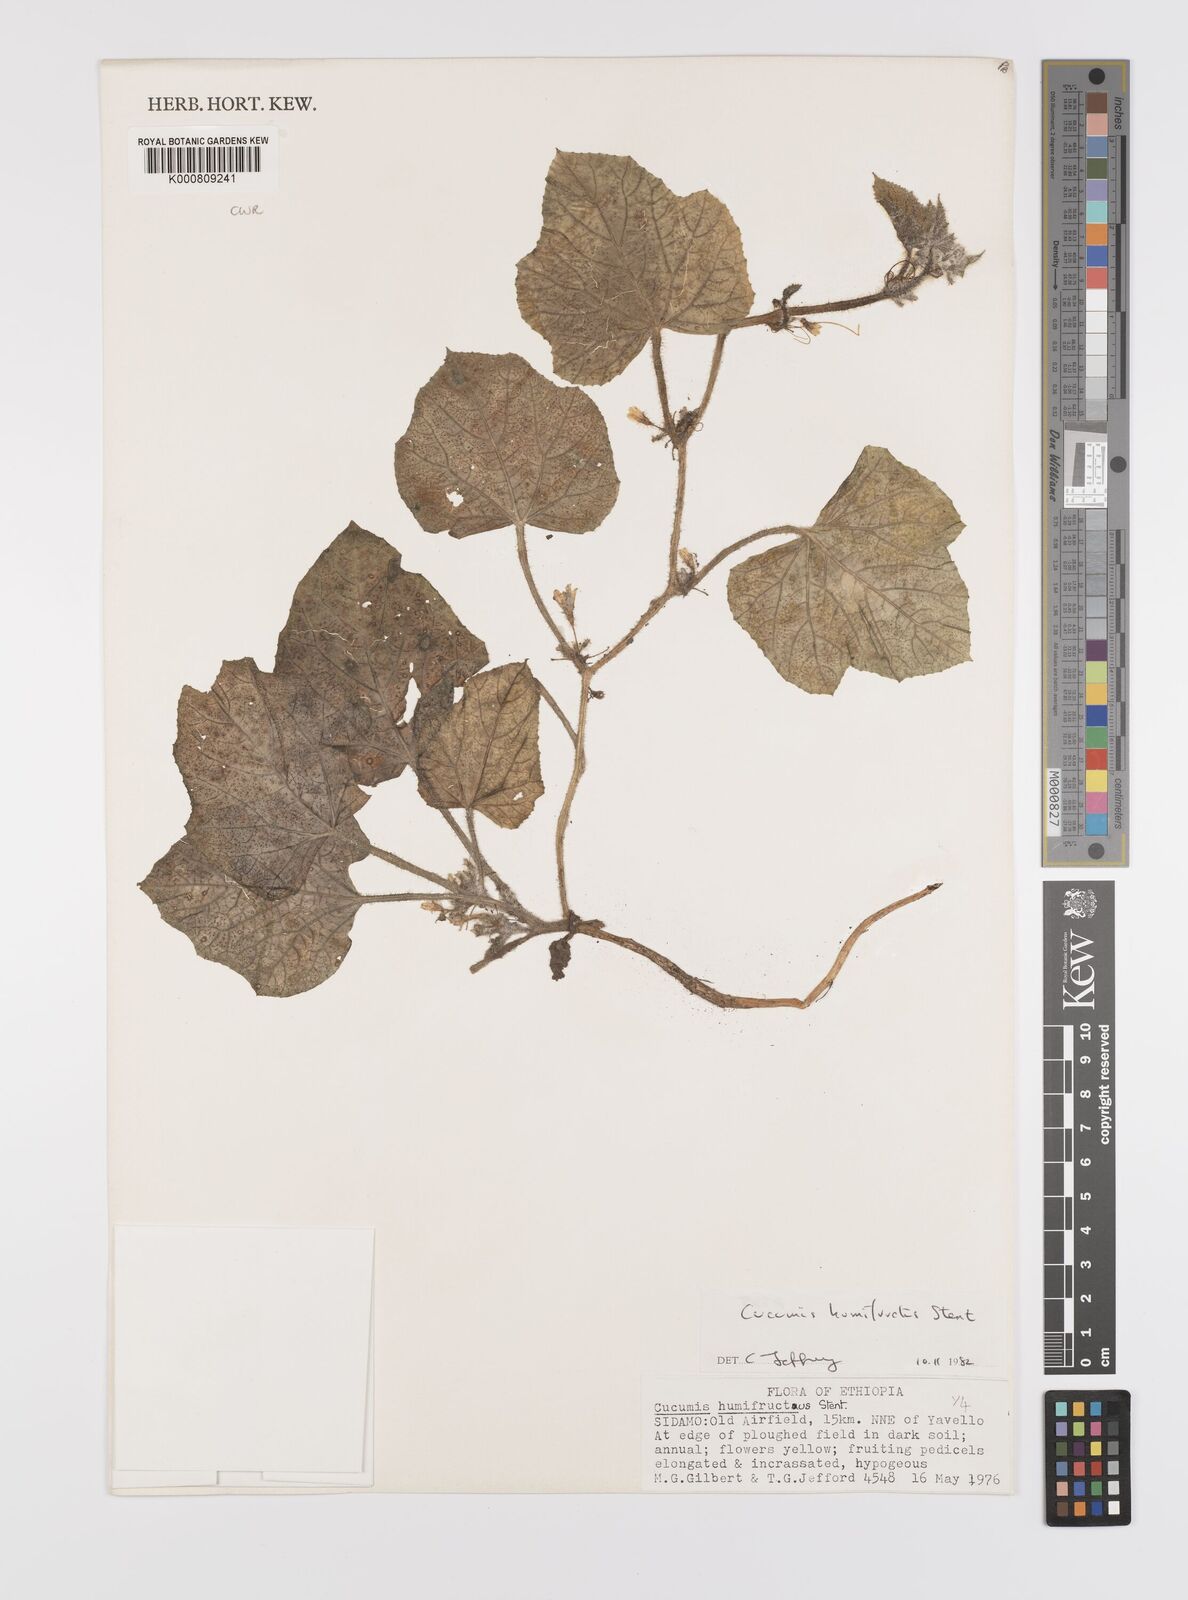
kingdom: Plantae
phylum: Tracheophyta
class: Magnoliopsida
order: Cucurbitales
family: Cucurbitaceae
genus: Cucumis
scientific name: Cucumis
